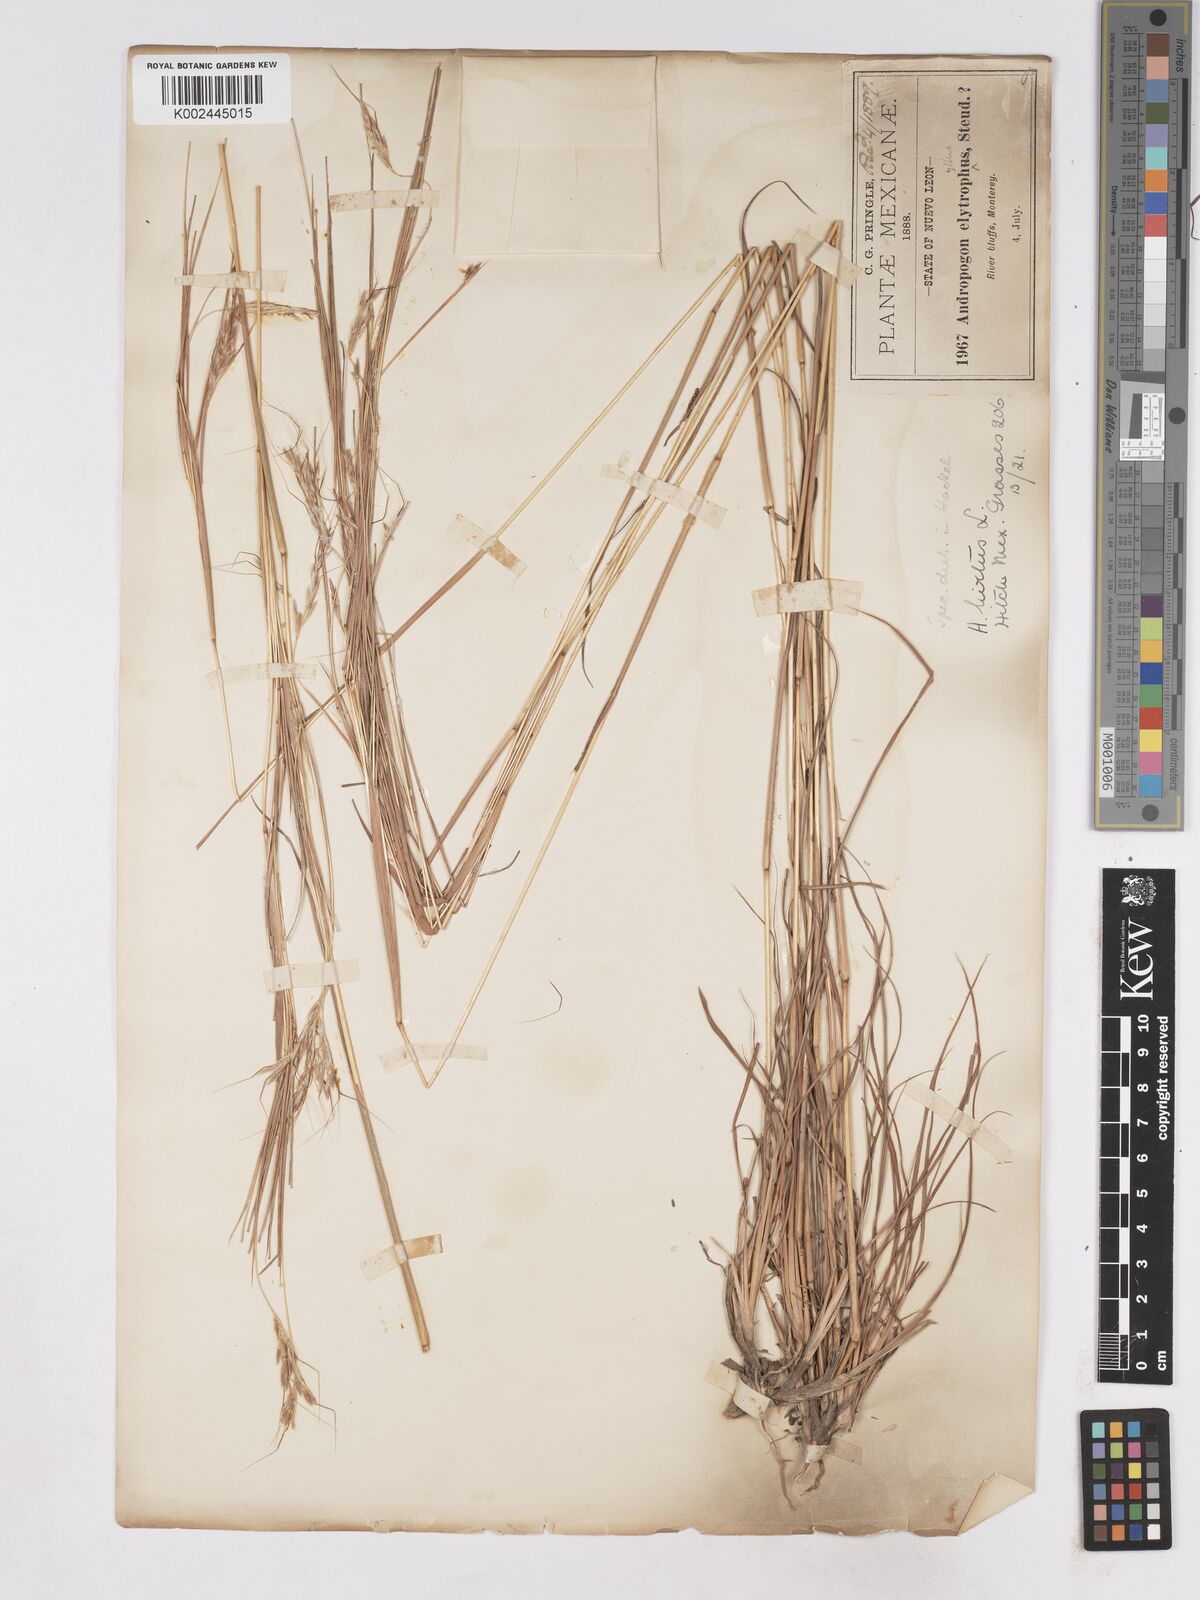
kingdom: Plantae
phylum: Tracheophyta
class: Liliopsida
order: Poales
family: Poaceae
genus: Hyparrhenia
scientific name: Hyparrhenia hirta
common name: Thatching grass
